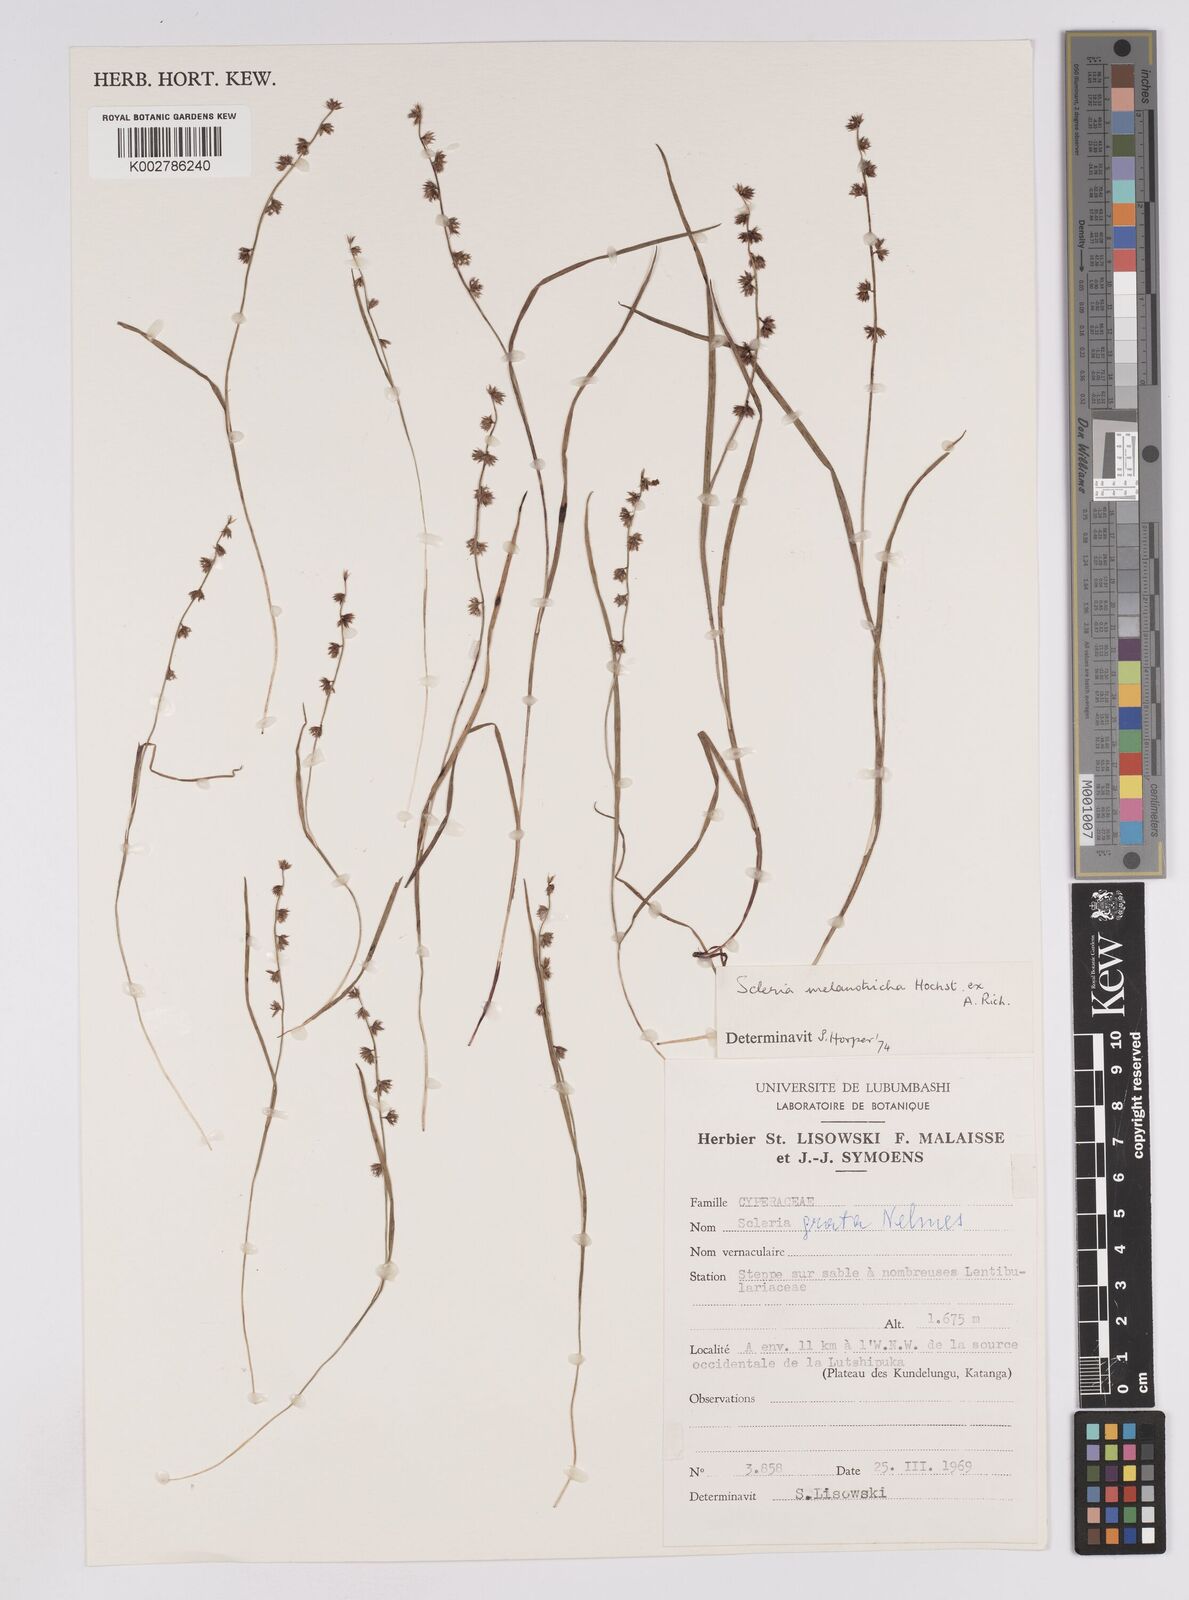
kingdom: Plantae
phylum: Tracheophyta
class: Liliopsida
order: Poales
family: Cyperaceae
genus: Scleria
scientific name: Scleria melanotricha
